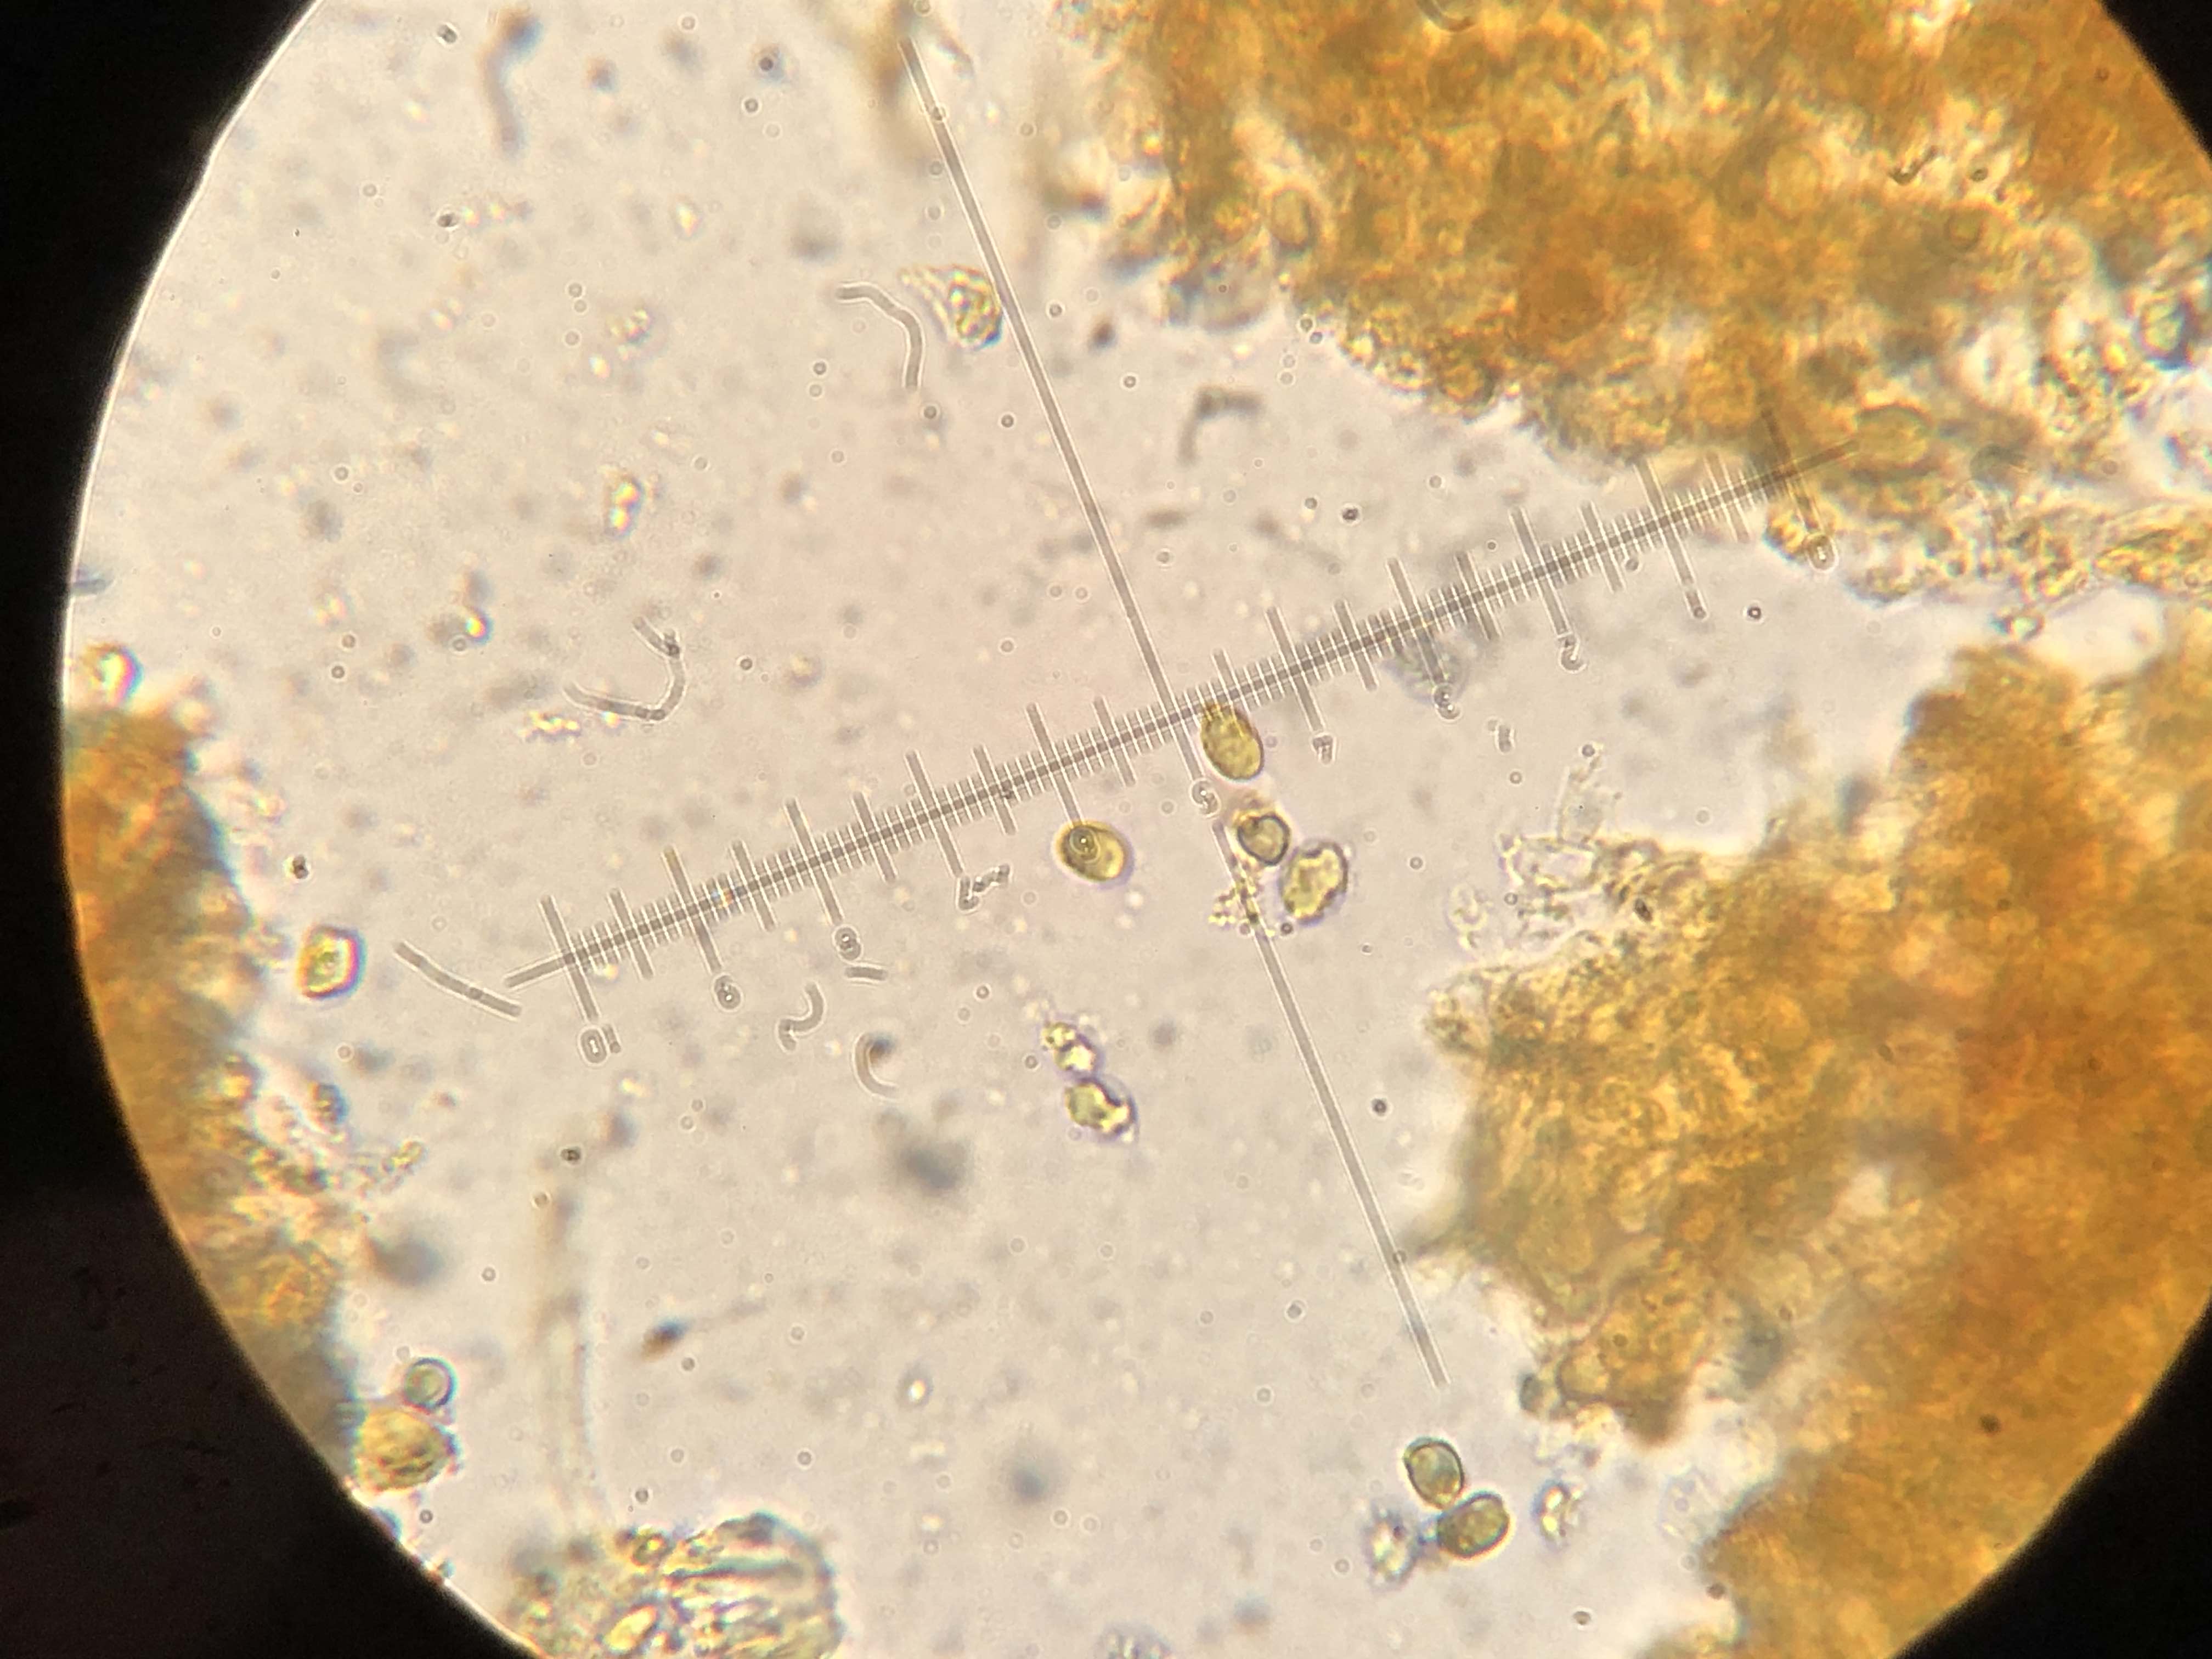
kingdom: Fungi
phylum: Basidiomycota
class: Agaricomycetes
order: Agaricales
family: Tricholomataceae
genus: Dermoloma
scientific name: Dermoloma cuneifolium
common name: eng-nonnehat
